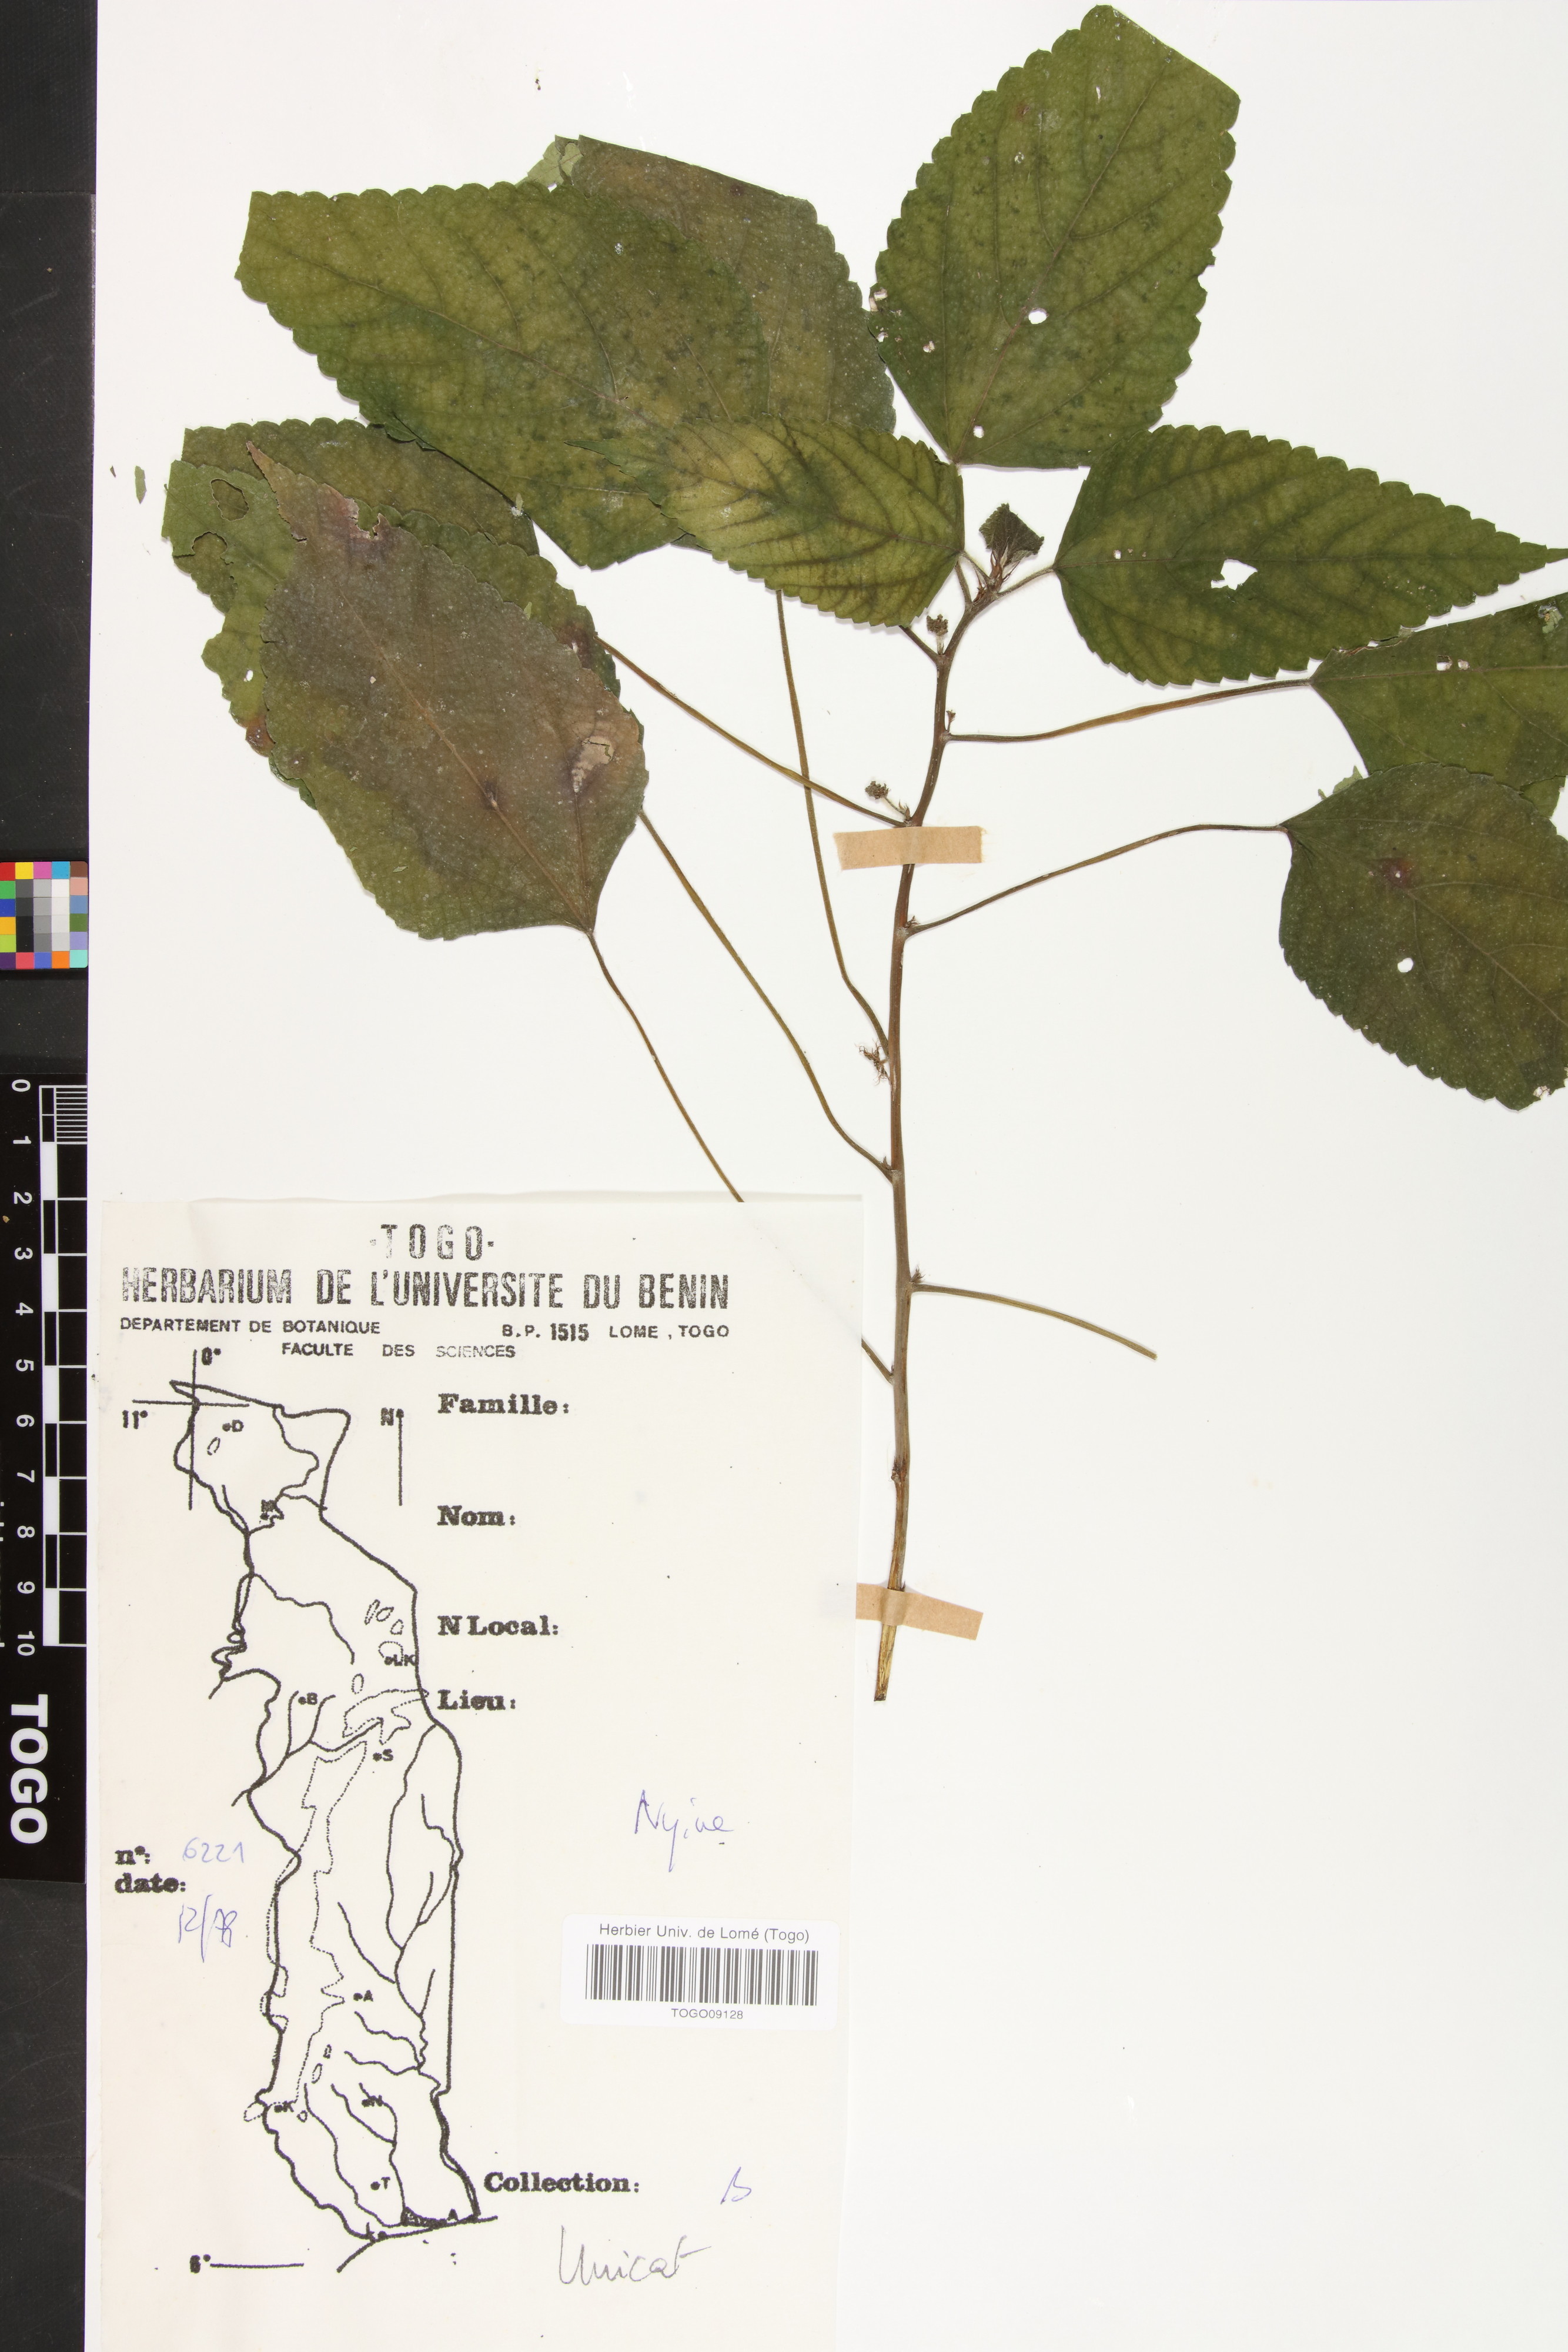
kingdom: Plantae
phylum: Tracheophyta
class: Magnoliopsida
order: Rosales
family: Urticaceae
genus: Laportea
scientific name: Laportea ovalifolia
